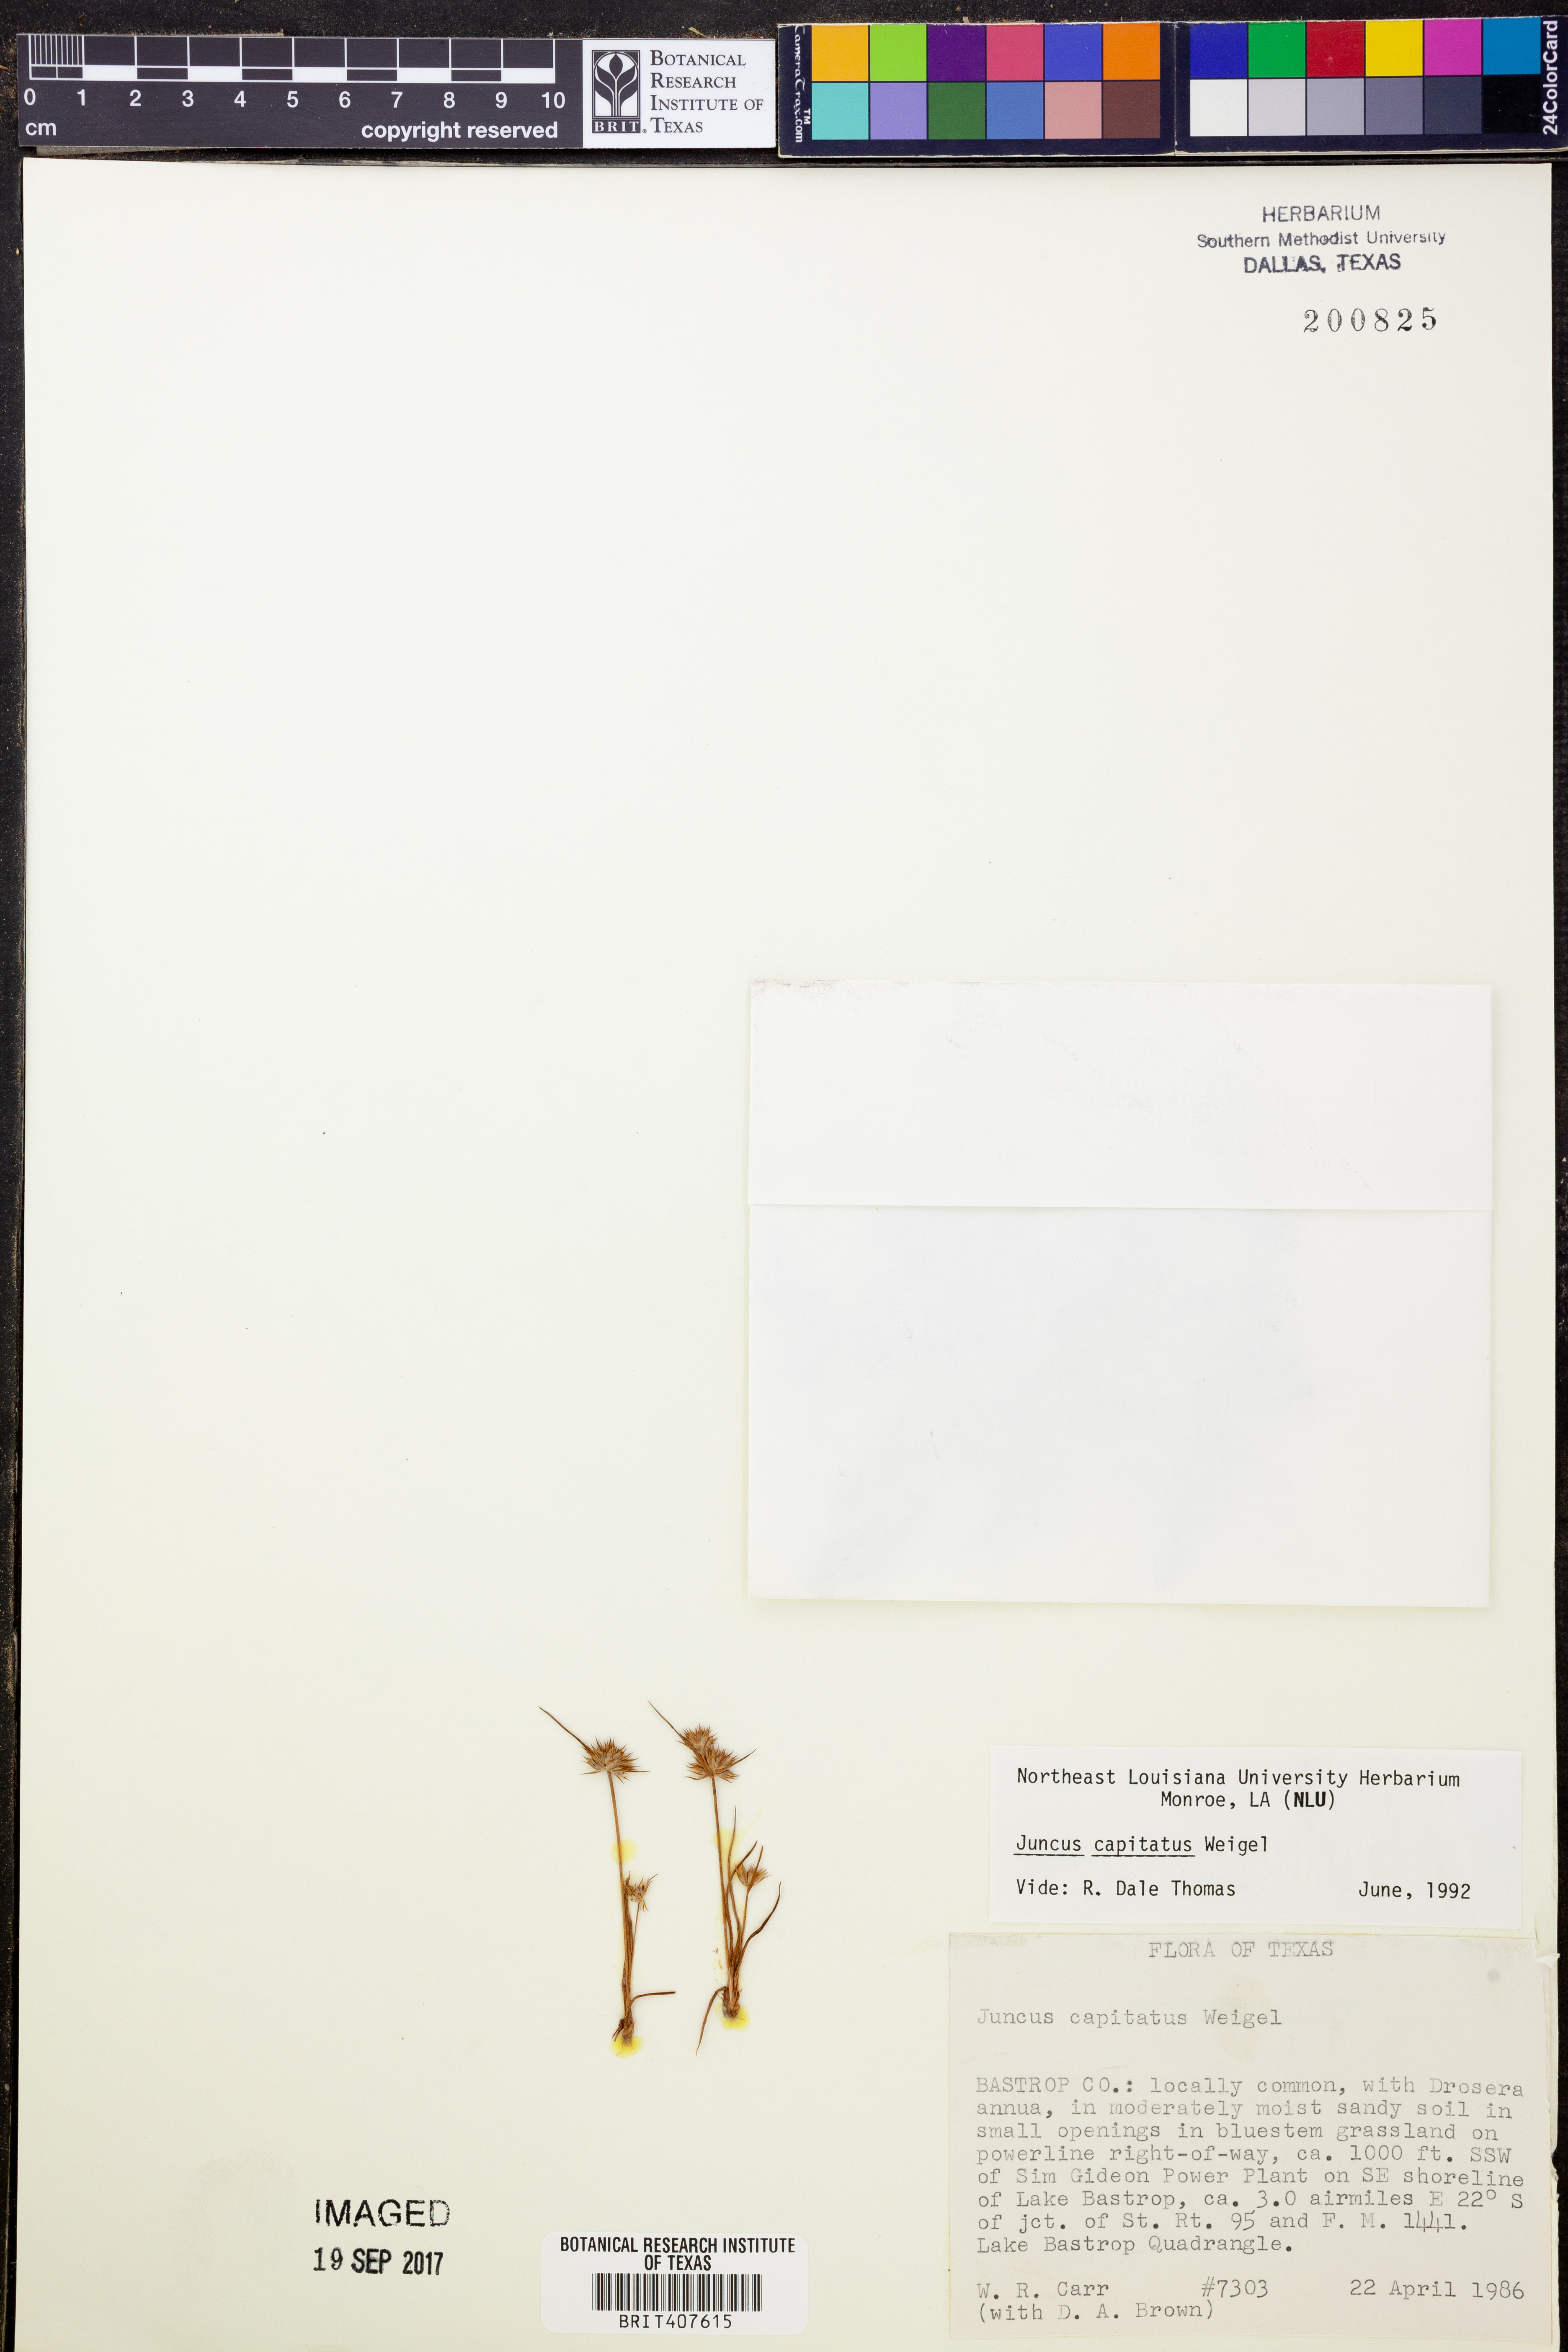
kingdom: Plantae
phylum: Tracheophyta
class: Liliopsida
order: Poales
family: Juncaceae
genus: Juncus
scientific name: Juncus capitatus
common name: Dwarf rush
